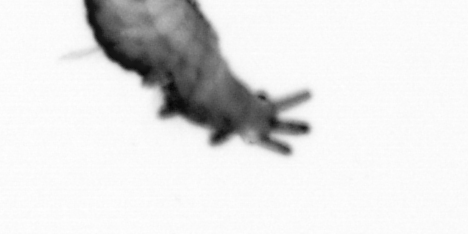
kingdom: Animalia
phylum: Annelida
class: Polychaeta
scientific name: Polychaeta
